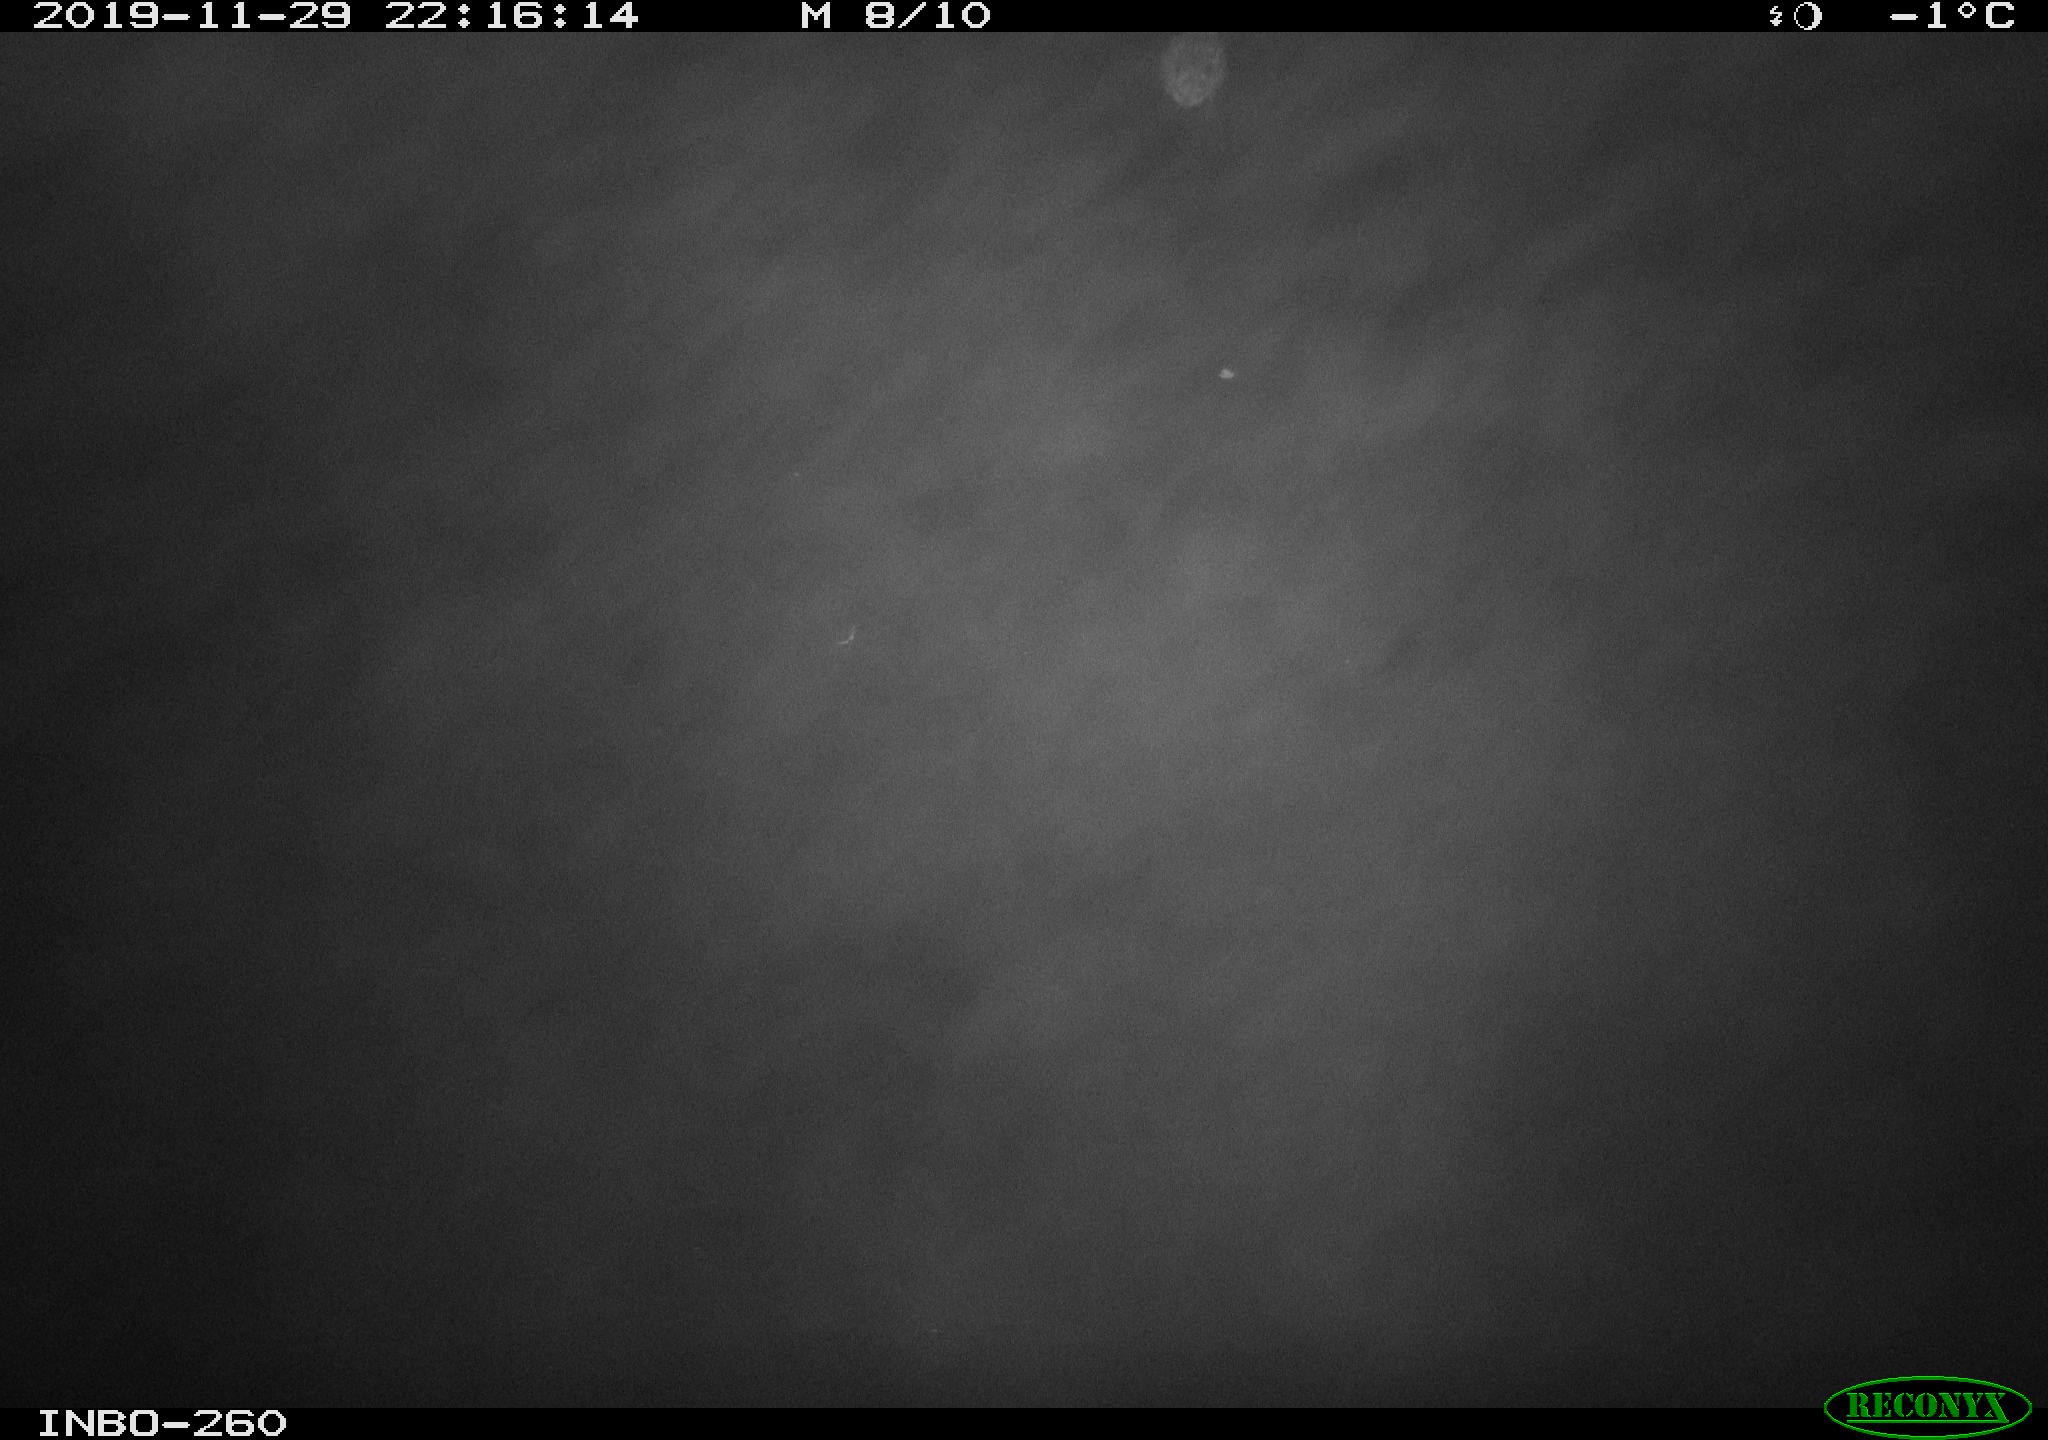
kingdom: Animalia
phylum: Chordata
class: Aves
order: Anseriformes
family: Anatidae
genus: Anas
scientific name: Anas platyrhynchos
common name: Mallard
